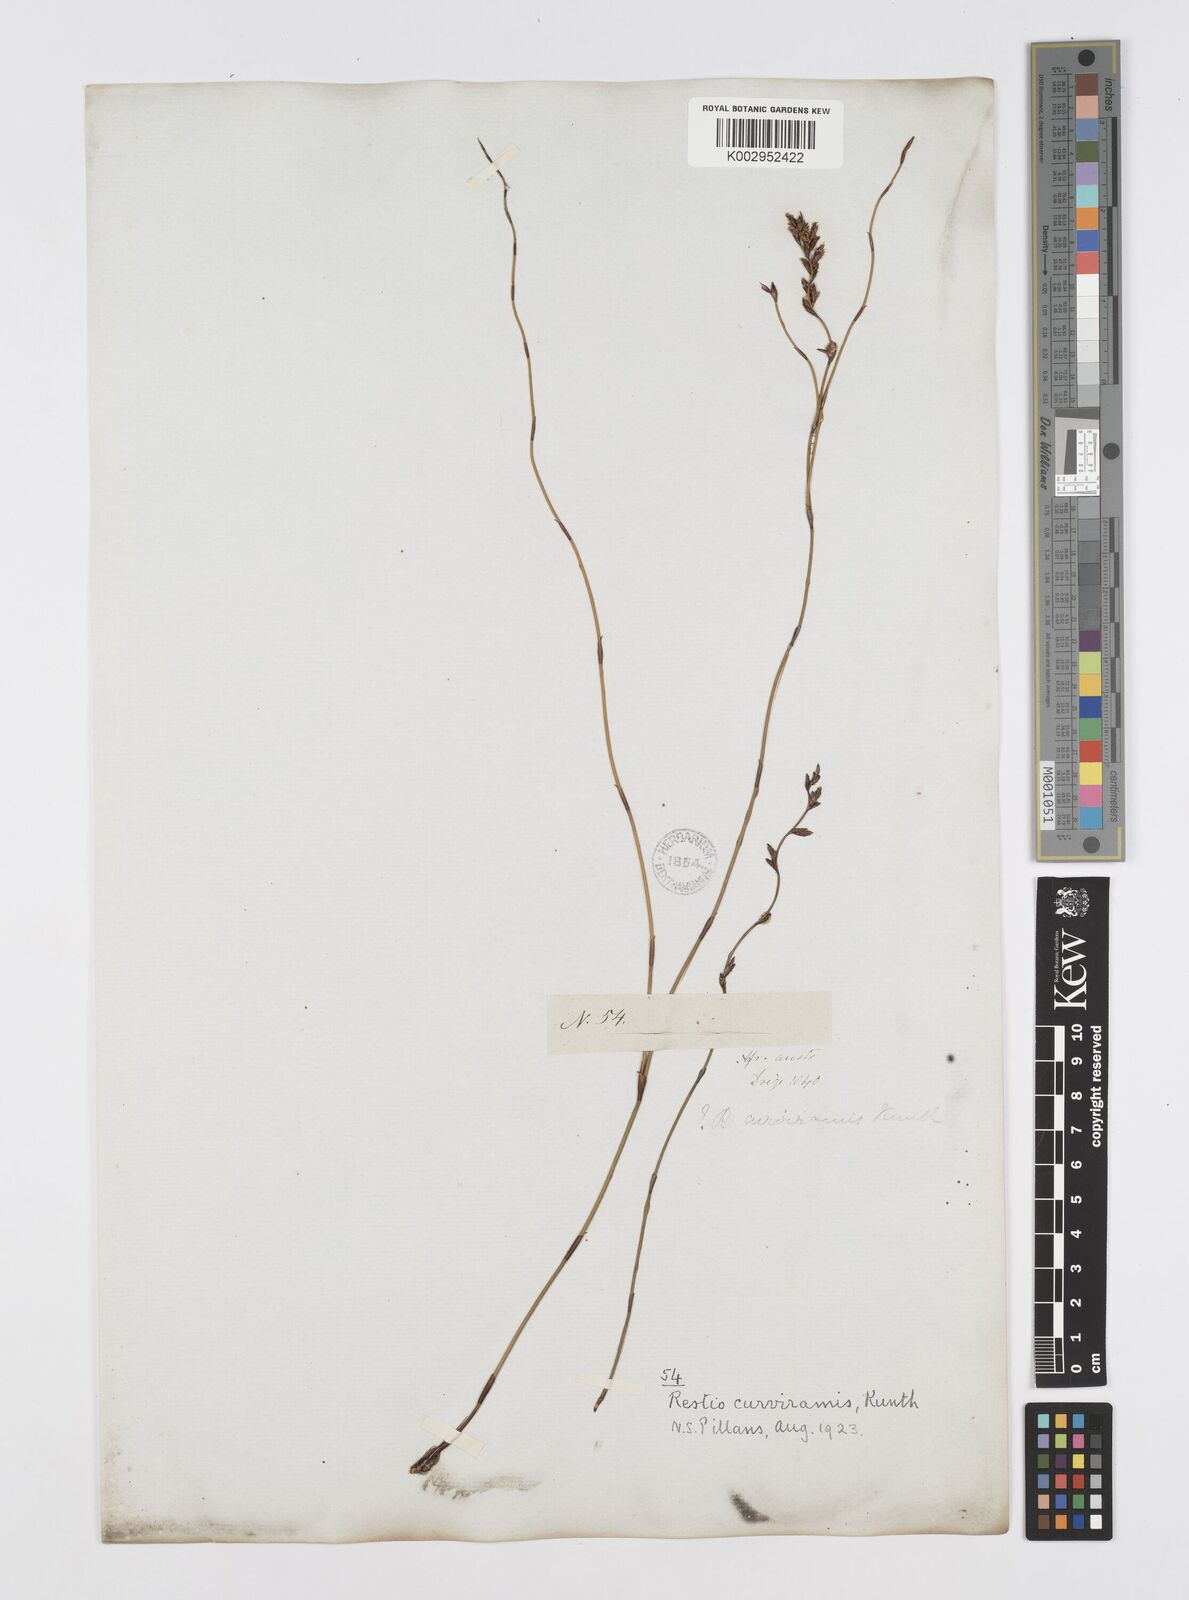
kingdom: Plantae
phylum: Tracheophyta
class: Liliopsida
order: Poales
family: Restionaceae
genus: Restio
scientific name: Restio curviramis
